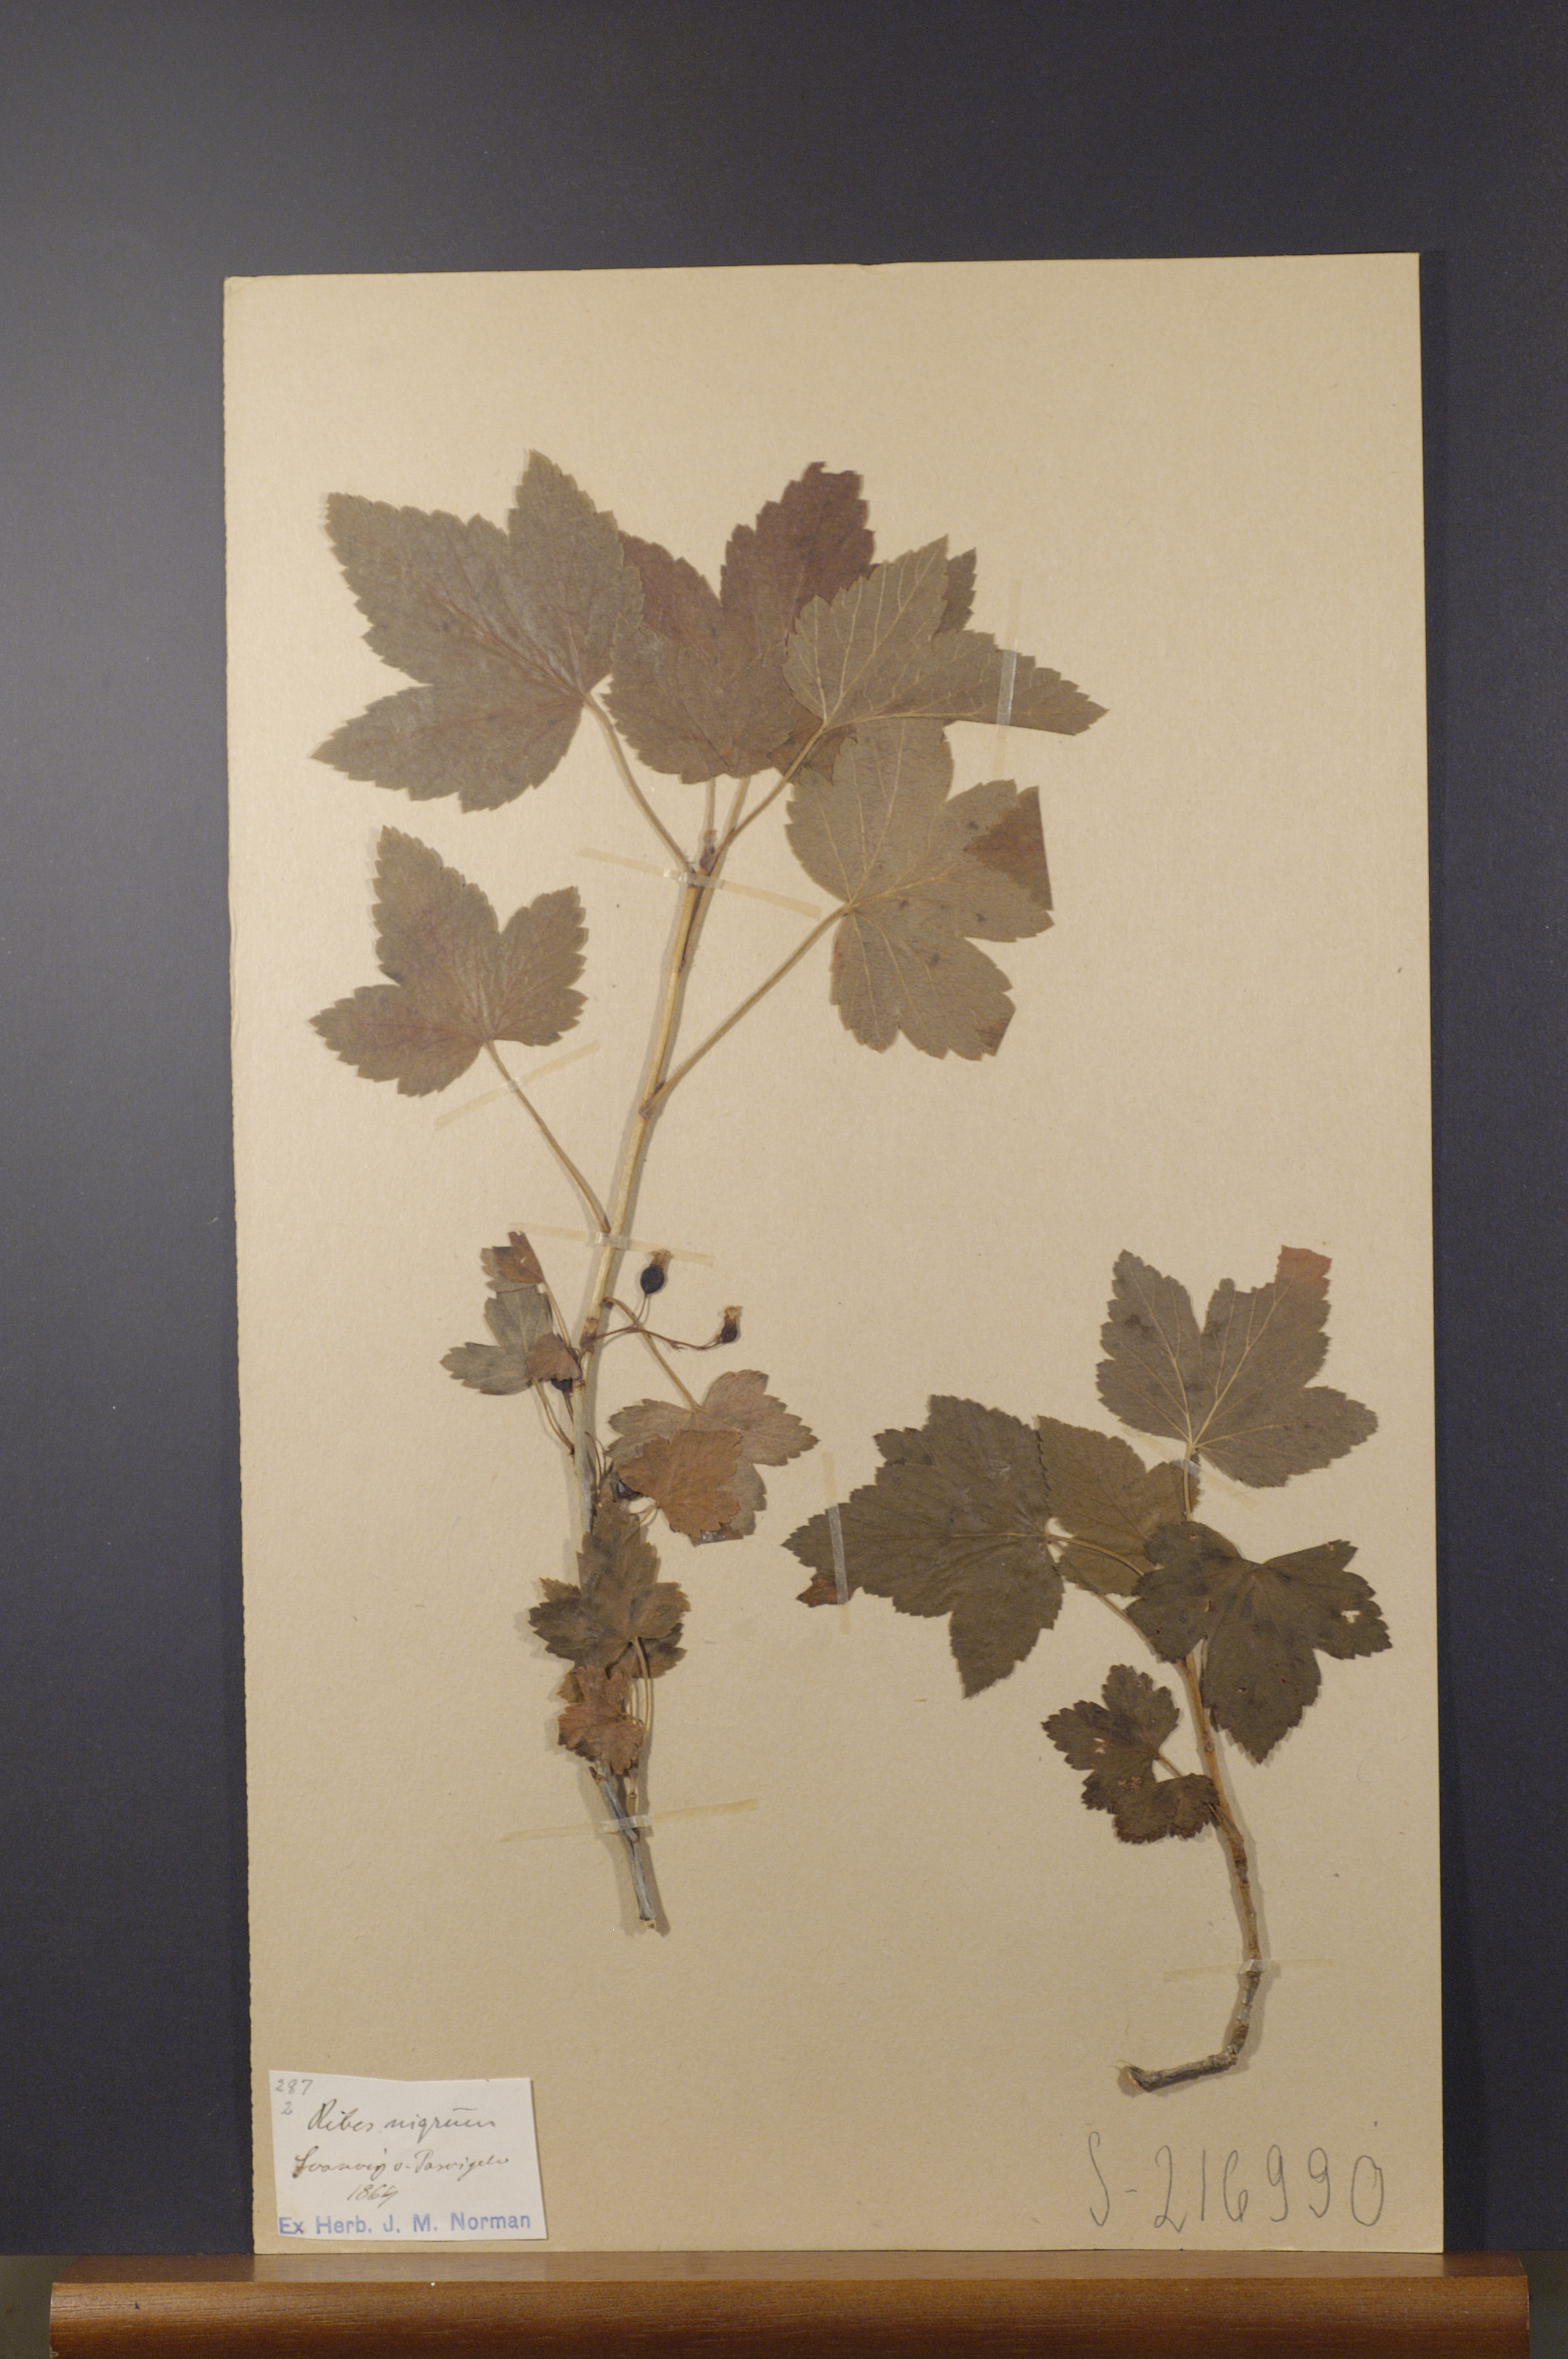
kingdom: Plantae
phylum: Tracheophyta
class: Magnoliopsida
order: Saxifragales
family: Grossulariaceae
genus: Ribes
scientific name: Ribes nigrum
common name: Black currant
